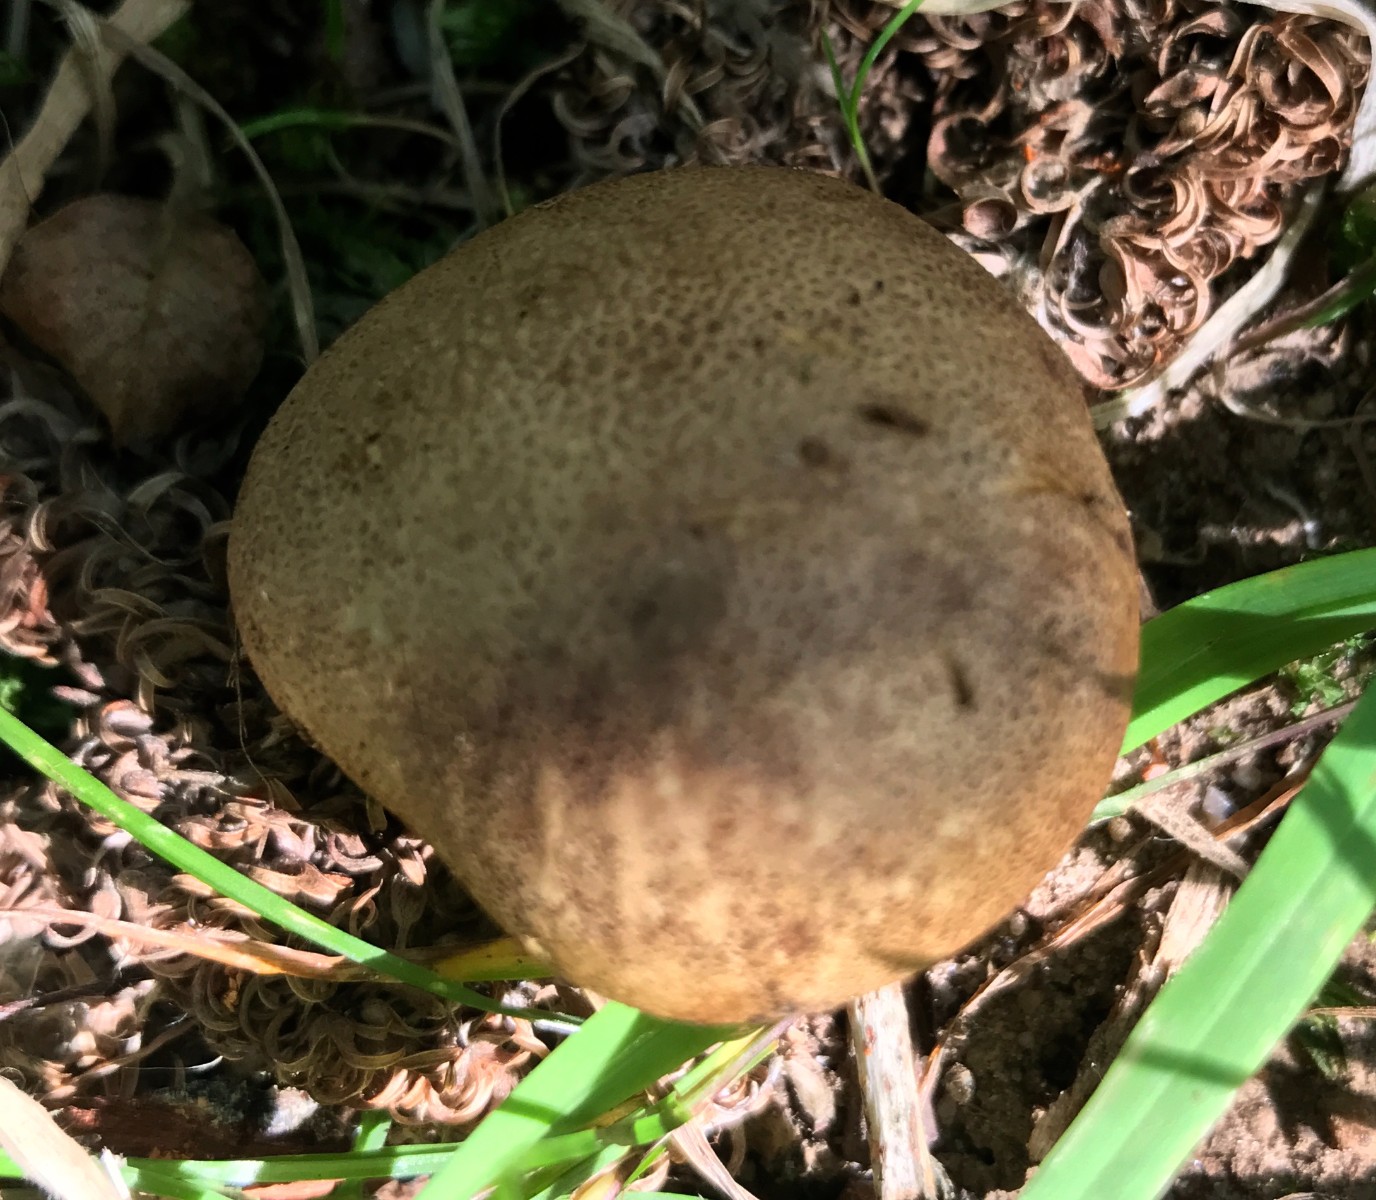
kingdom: Fungi
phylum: Basidiomycota
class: Agaricomycetes
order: Boletales
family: Sclerodermataceae
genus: Scleroderma
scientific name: Scleroderma citrinum
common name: almindelig bruskbold
